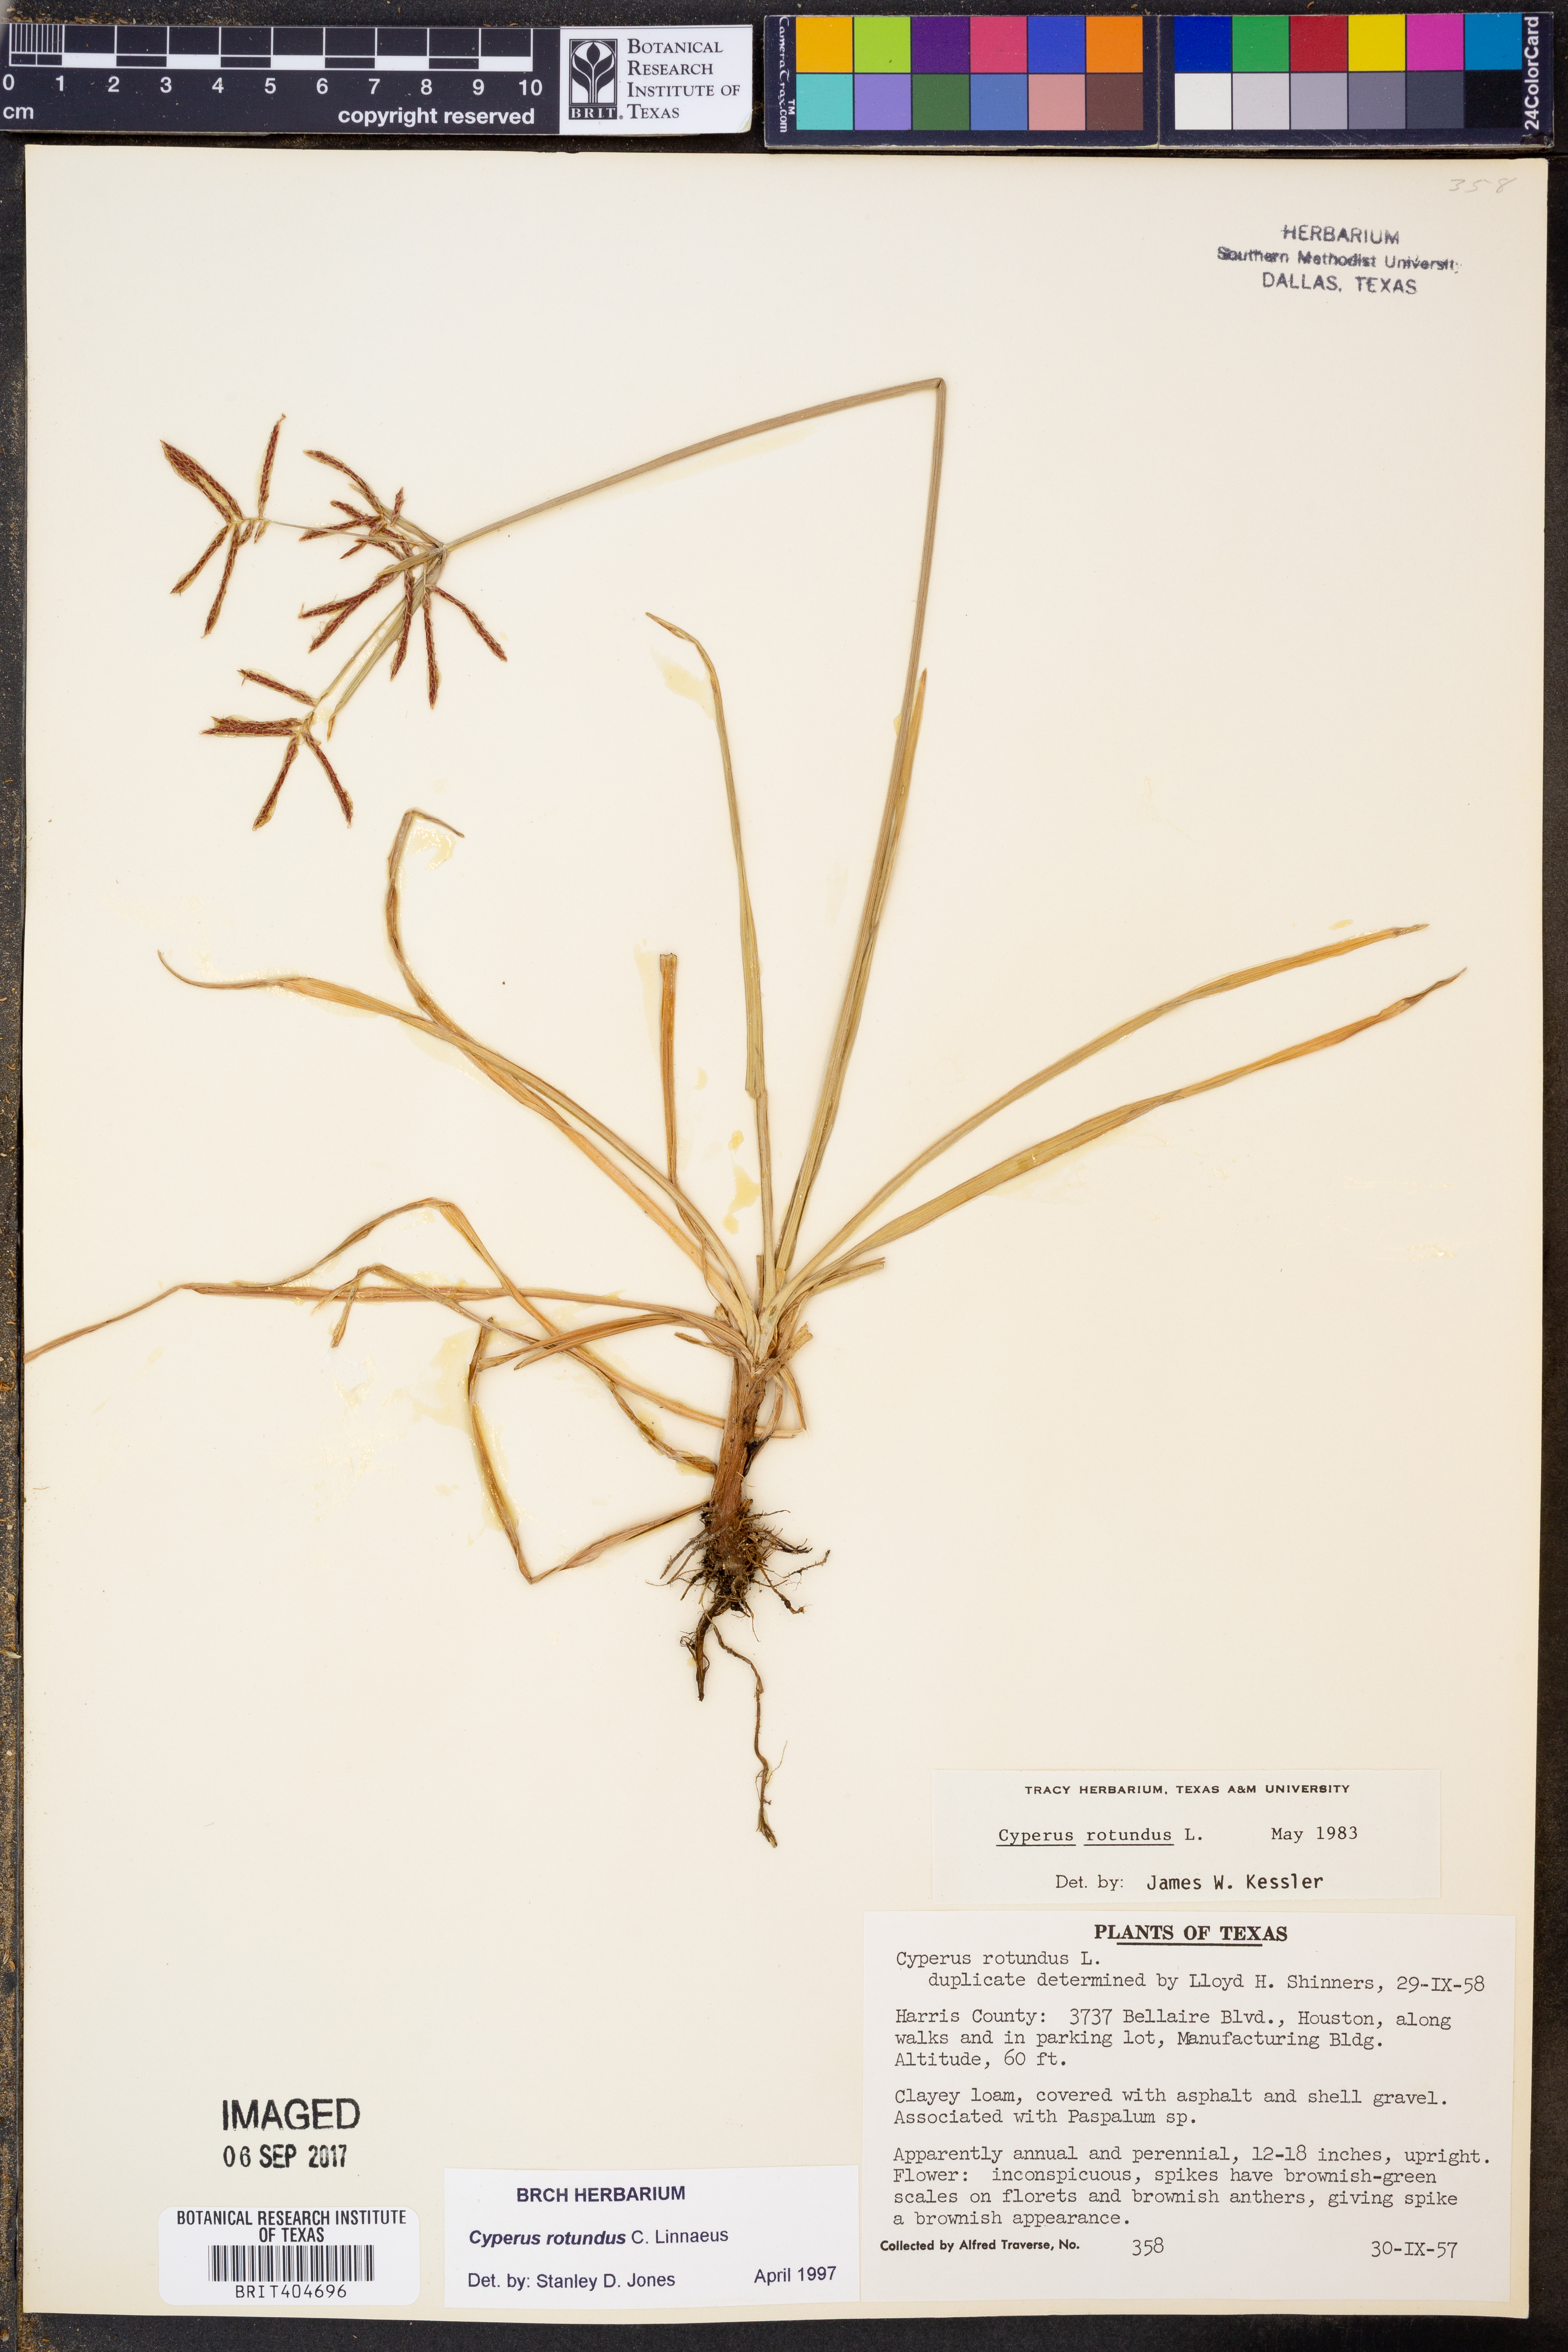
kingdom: Plantae
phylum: Tracheophyta
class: Liliopsida
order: Poales
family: Cyperaceae
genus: Cyperus
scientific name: Cyperus rotundus
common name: Nutgrass
